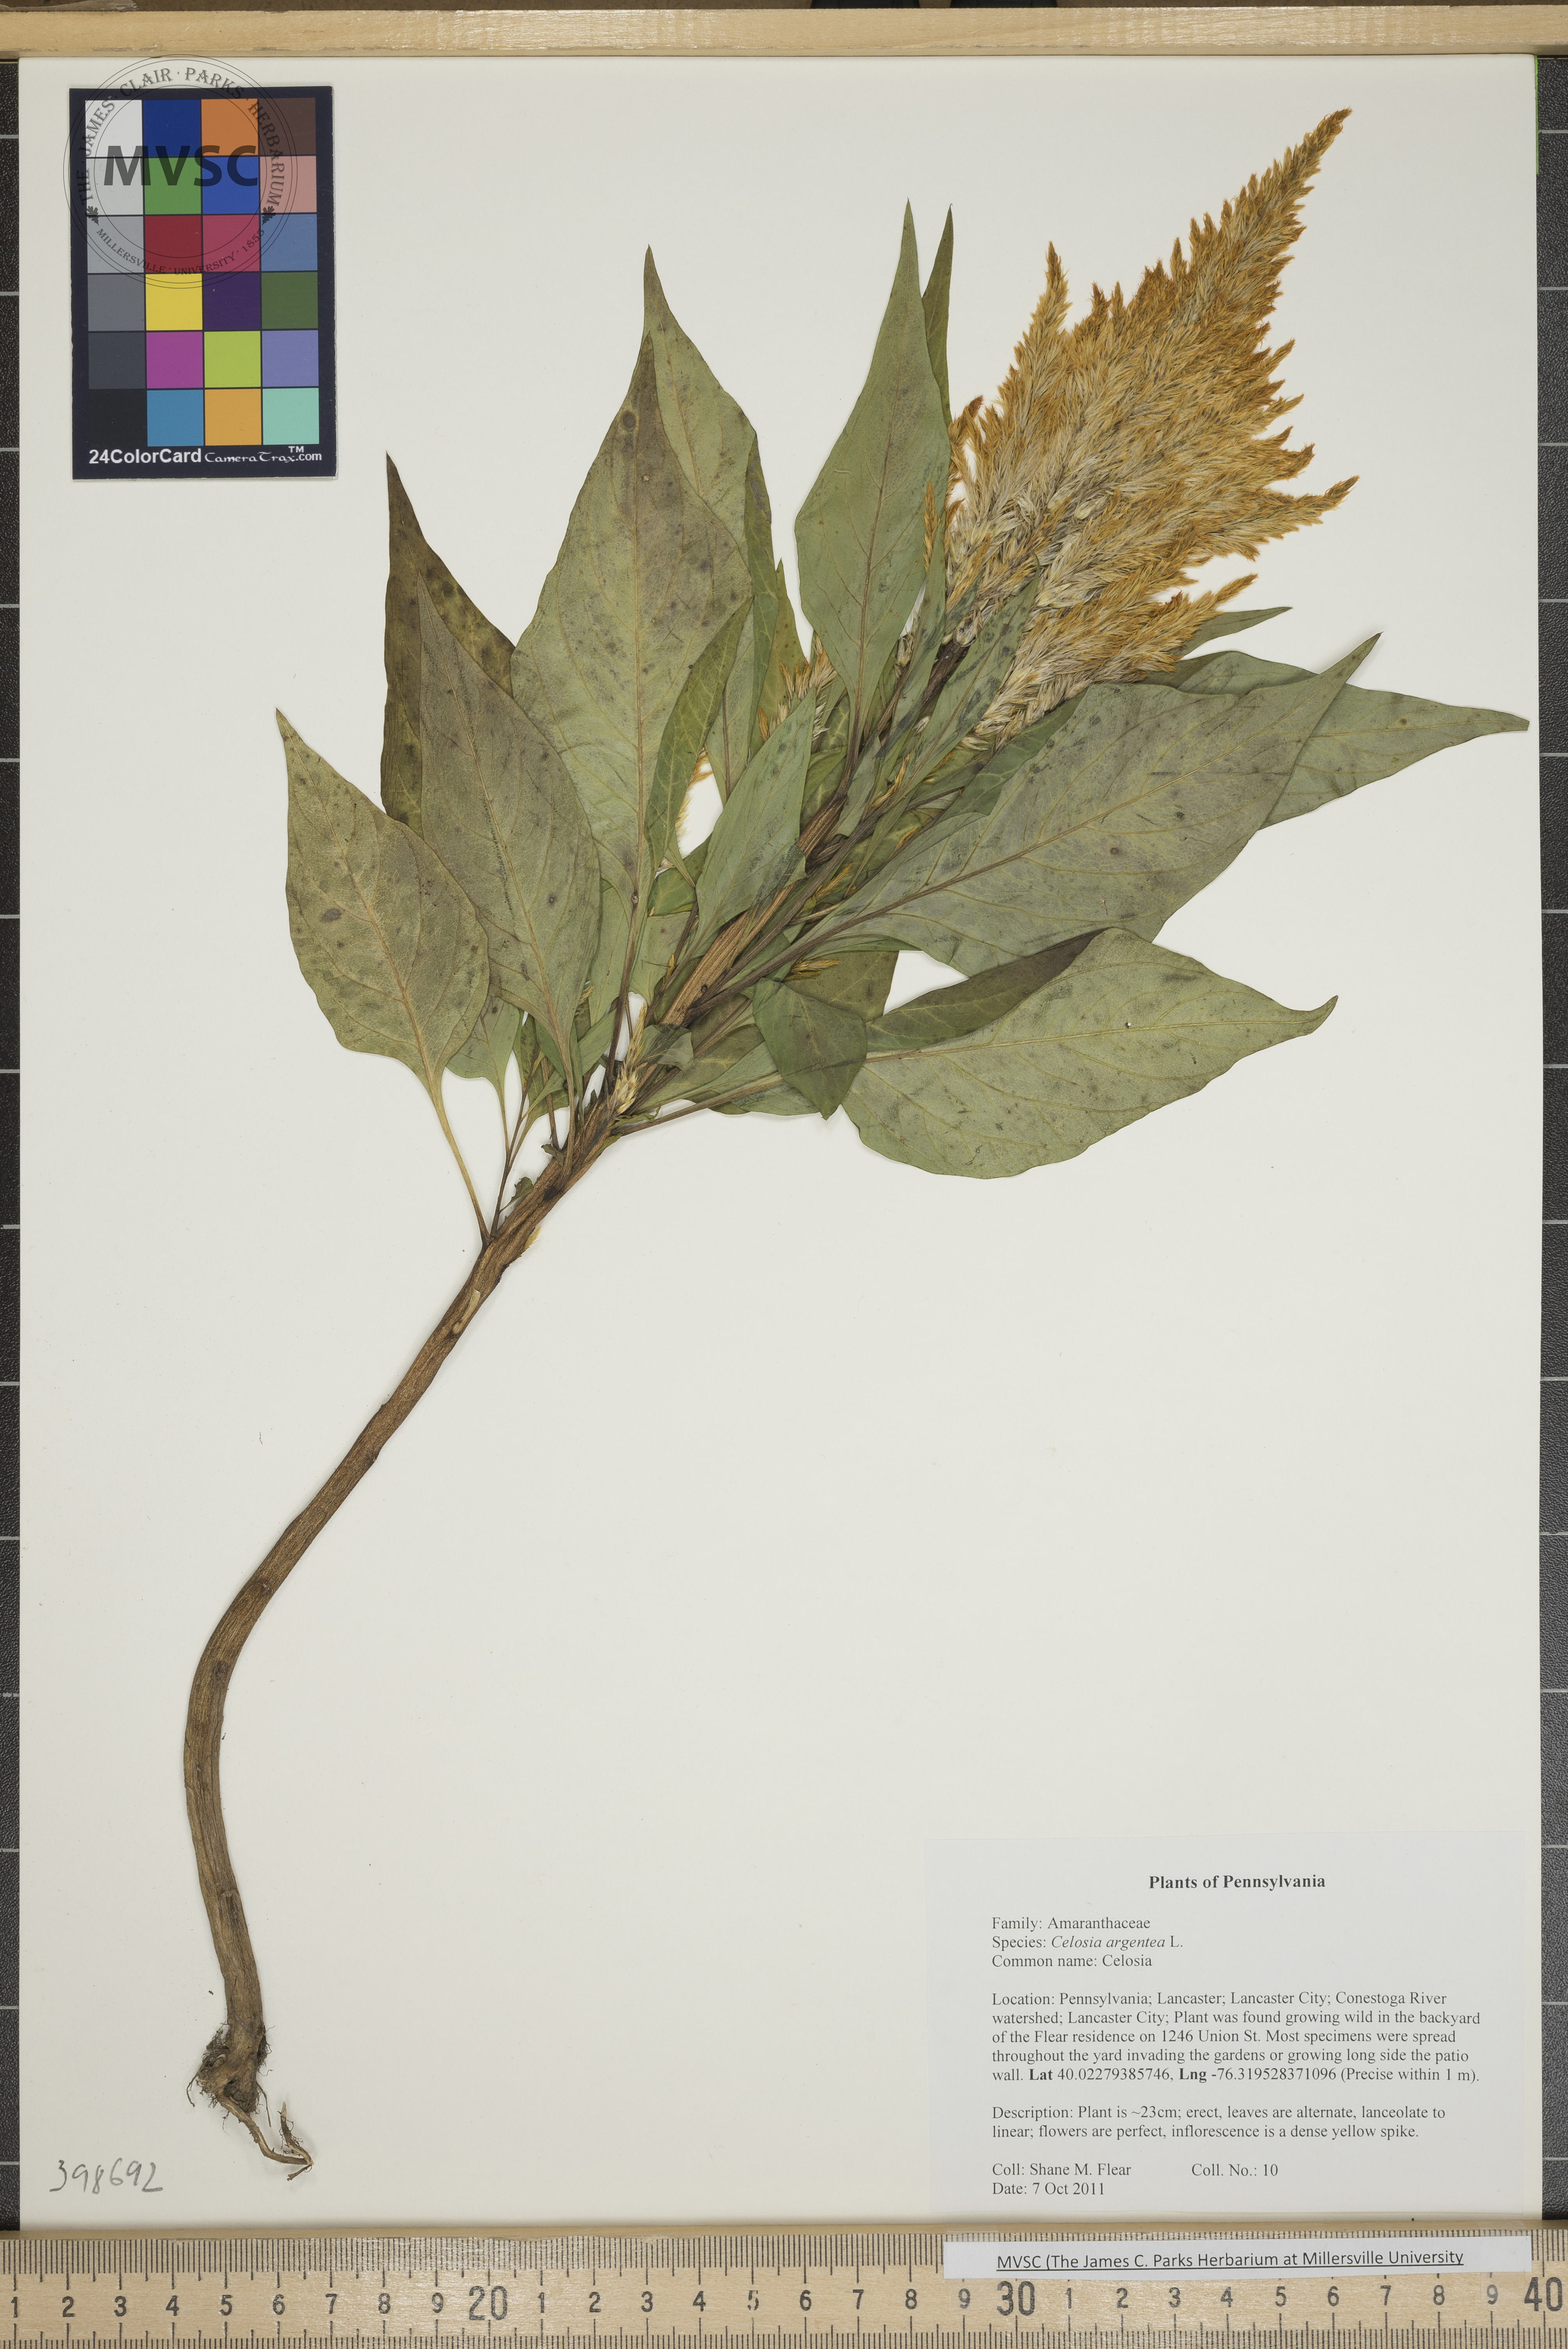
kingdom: Plantae
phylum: Tracheophyta
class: Magnoliopsida
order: Caryophyllales
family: Amaranthaceae
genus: Celosia
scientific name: Celosia argentea
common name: Celosia
